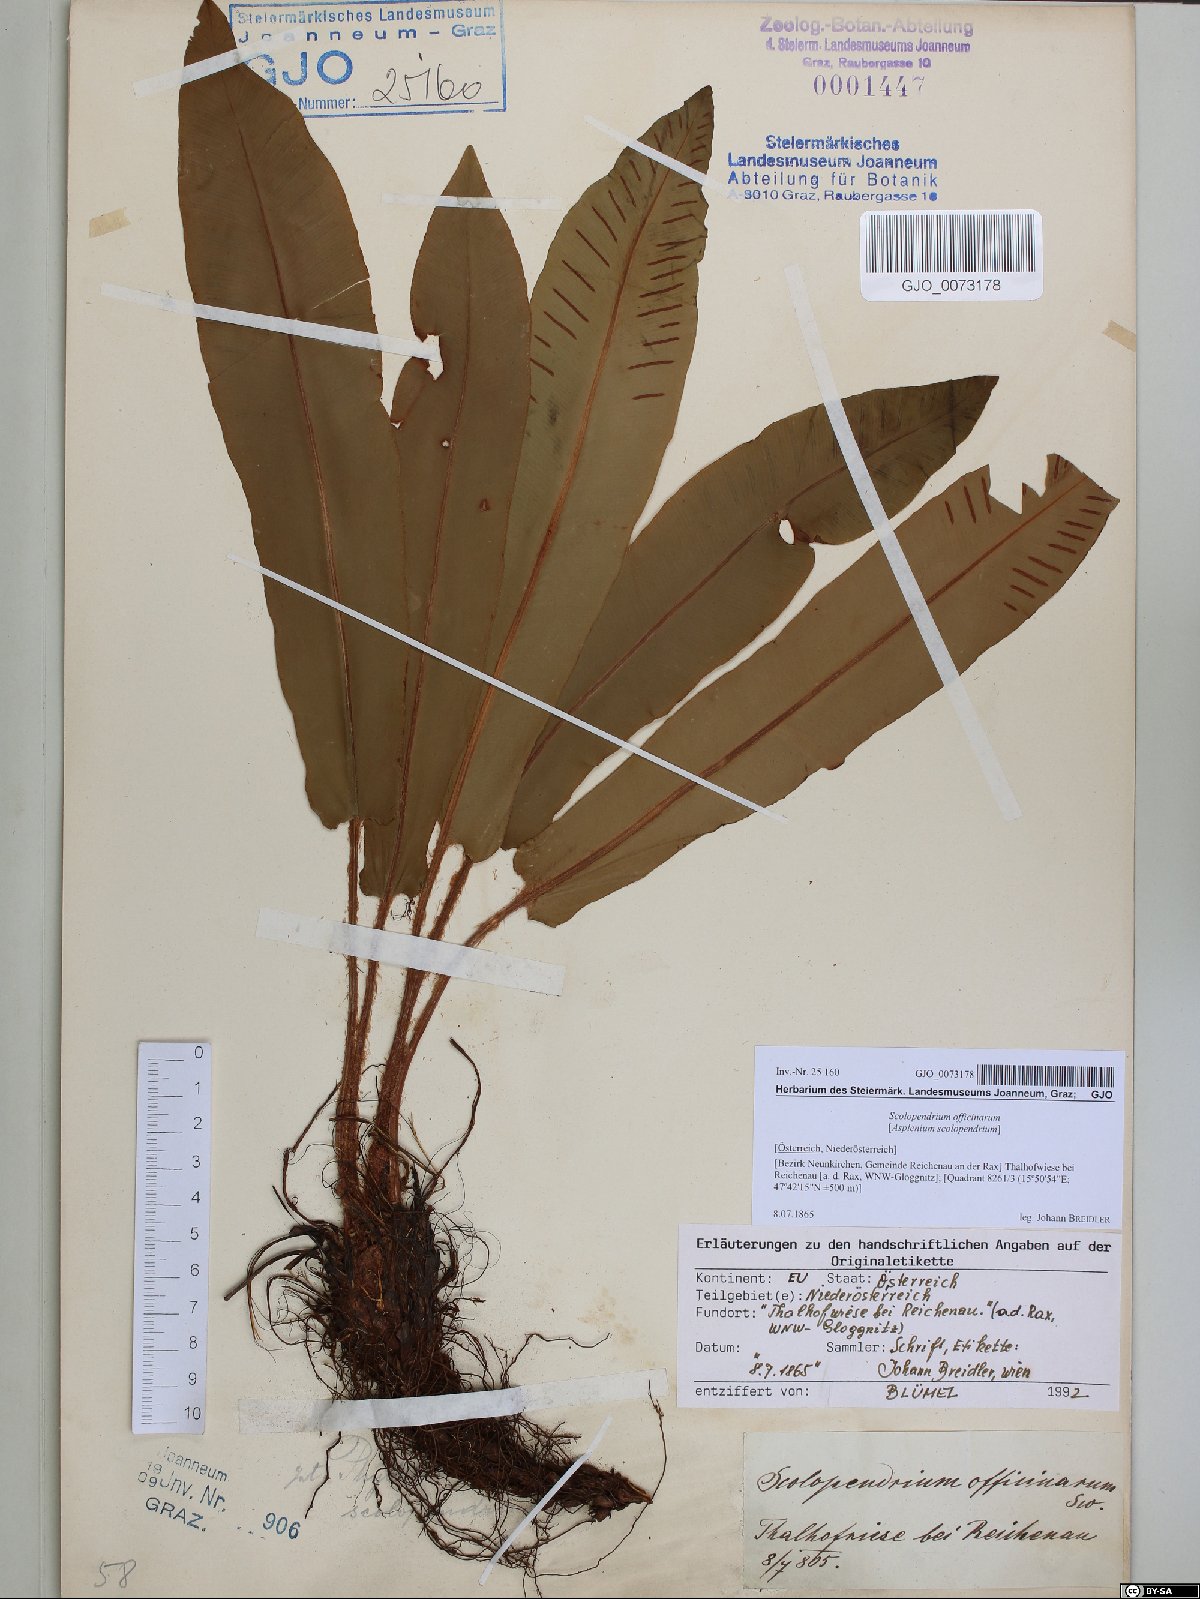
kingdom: Plantae
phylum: Tracheophyta
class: Polypodiopsida
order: Polypodiales
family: Aspleniaceae
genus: Asplenium
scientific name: Asplenium scolopendrium
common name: Hart's-tongue fern
